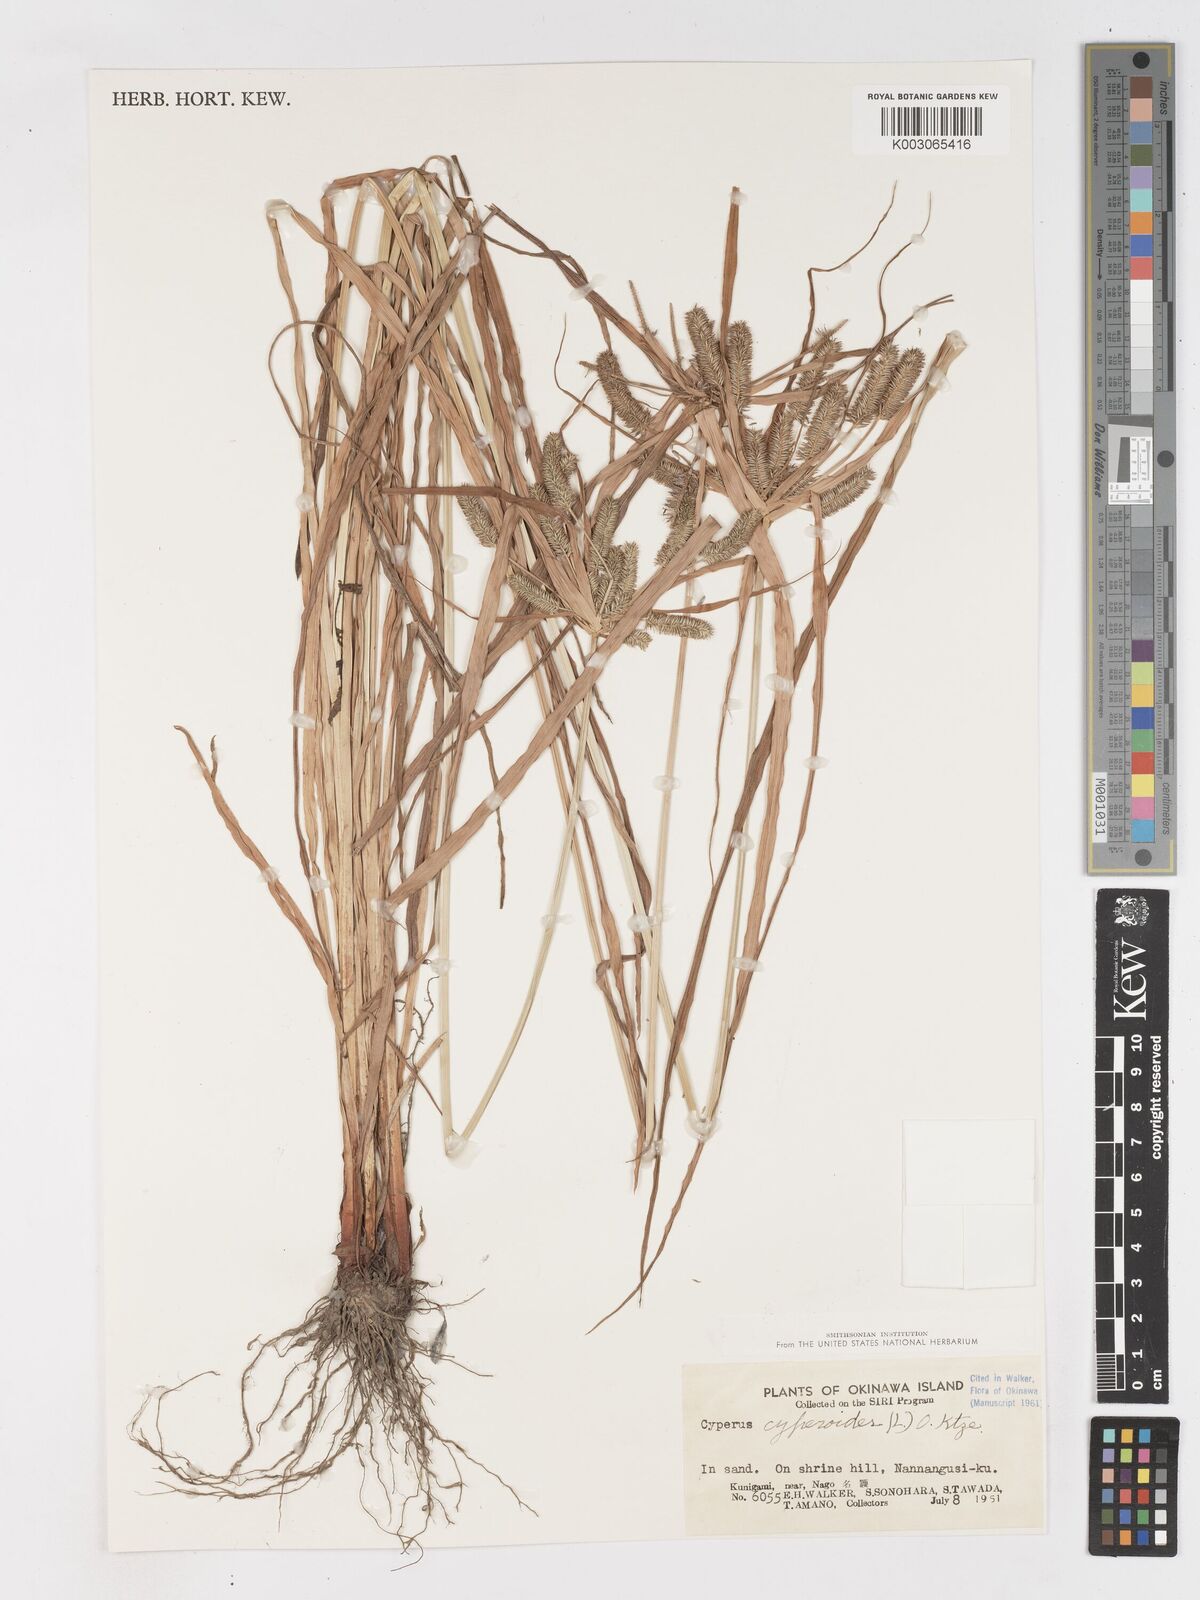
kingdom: Plantae
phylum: Tracheophyta
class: Liliopsida
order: Poales
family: Cyperaceae
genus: Cyperus
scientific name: Cyperus cyperoides
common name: Pacific island flat sedge
